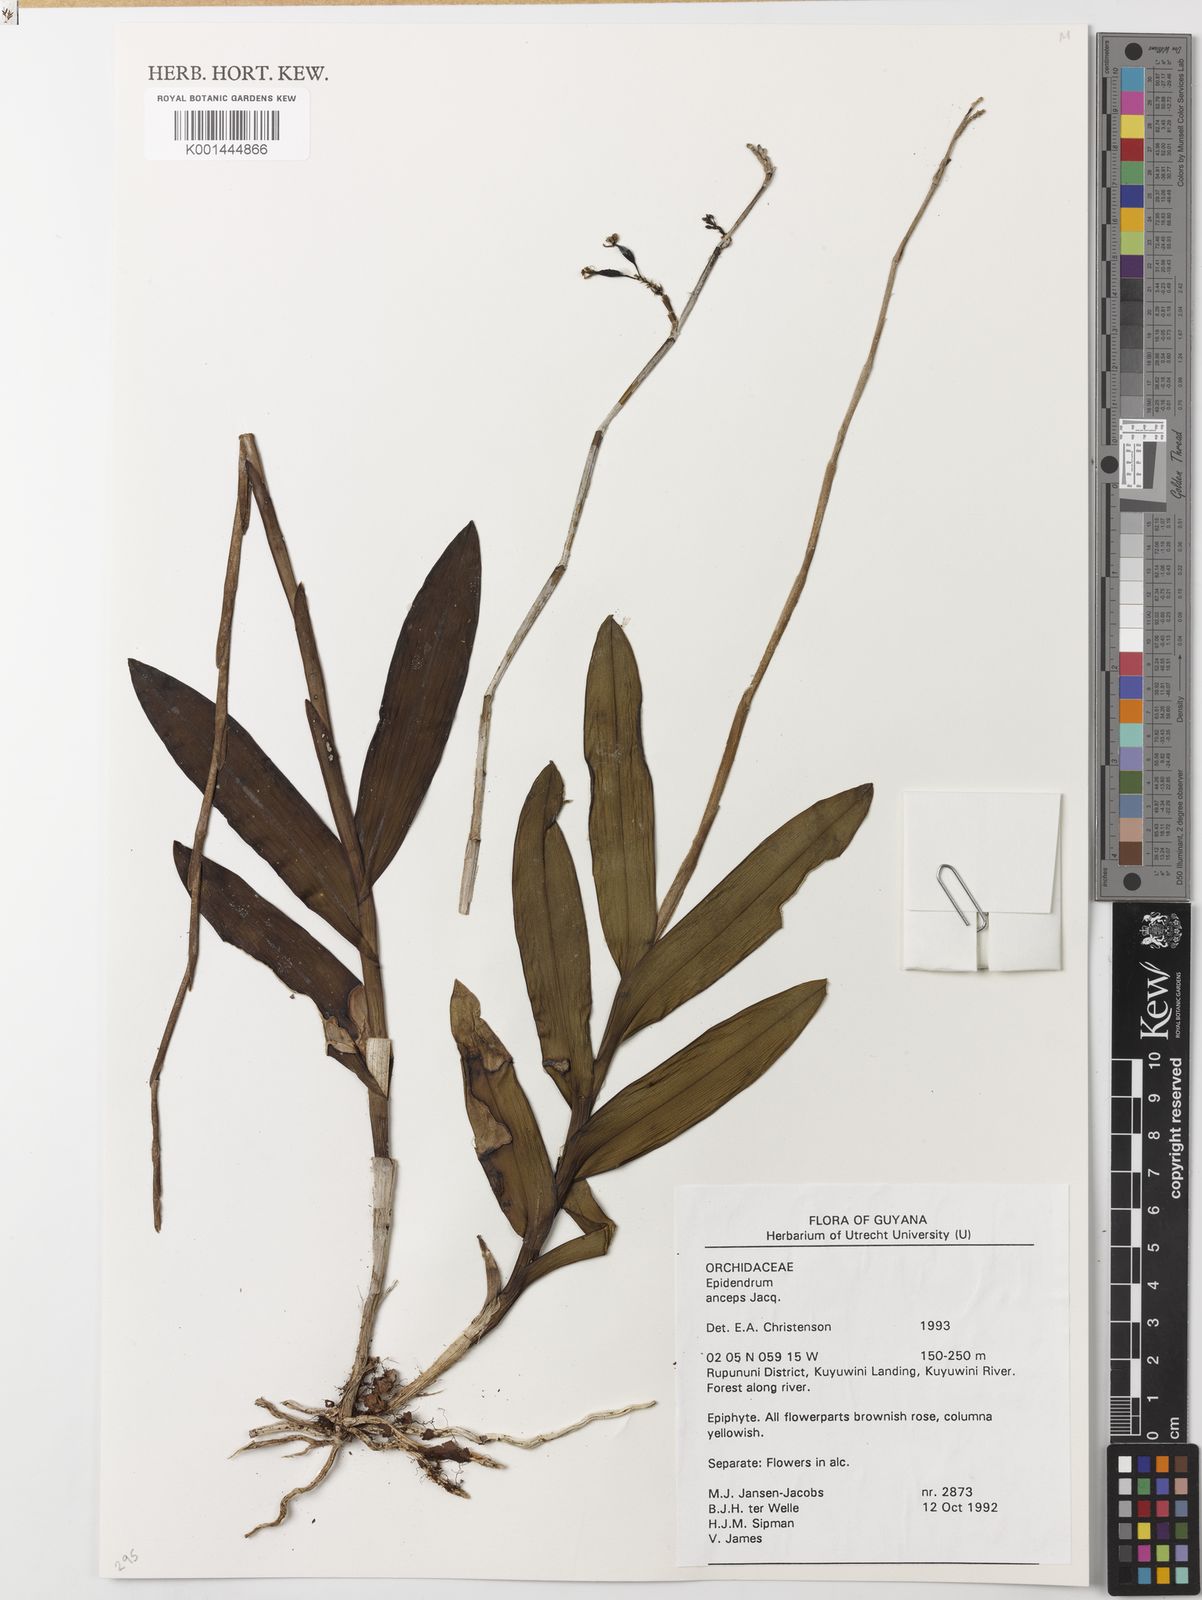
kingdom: Plantae
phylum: Tracheophyta
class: Liliopsida
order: Asparagales
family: Orchidaceae
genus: Epidendrum
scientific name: Epidendrum anceps
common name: Brown-flower butterfly orchid
